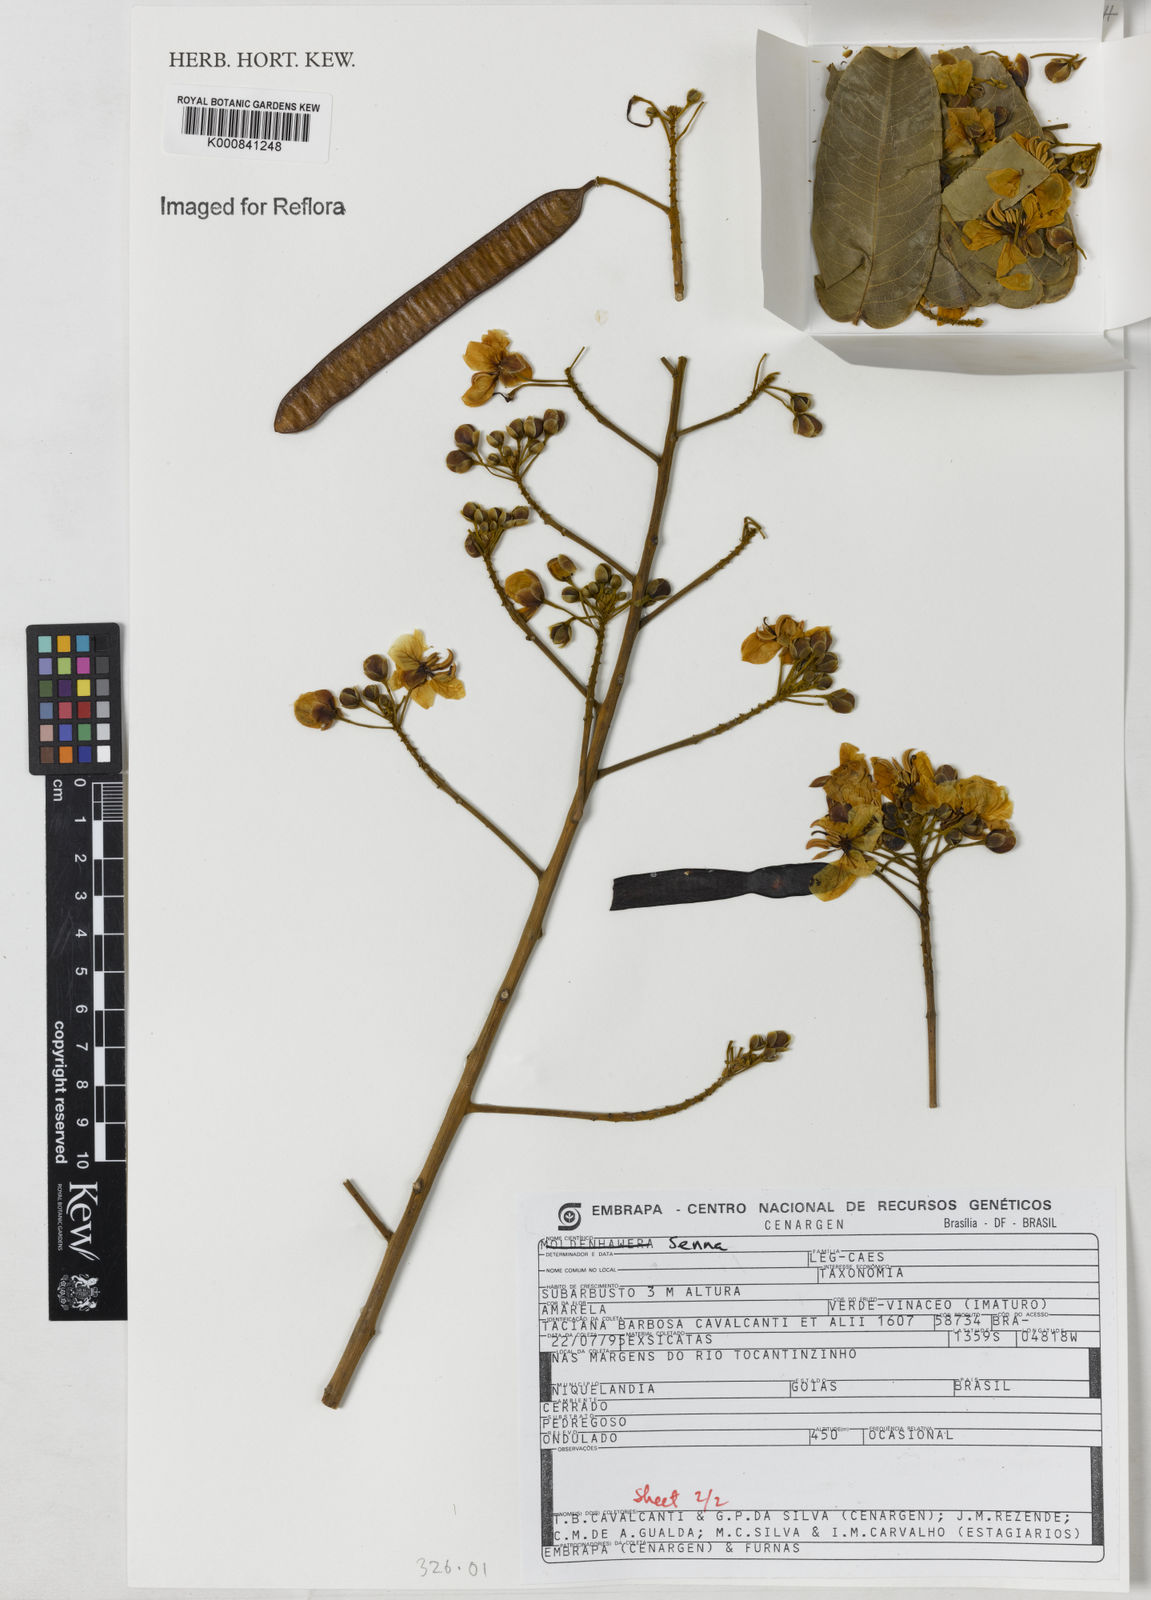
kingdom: Plantae
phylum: Tracheophyta
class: Magnoliopsida
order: Fabales
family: Fabaceae
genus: Senna
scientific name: Senna
